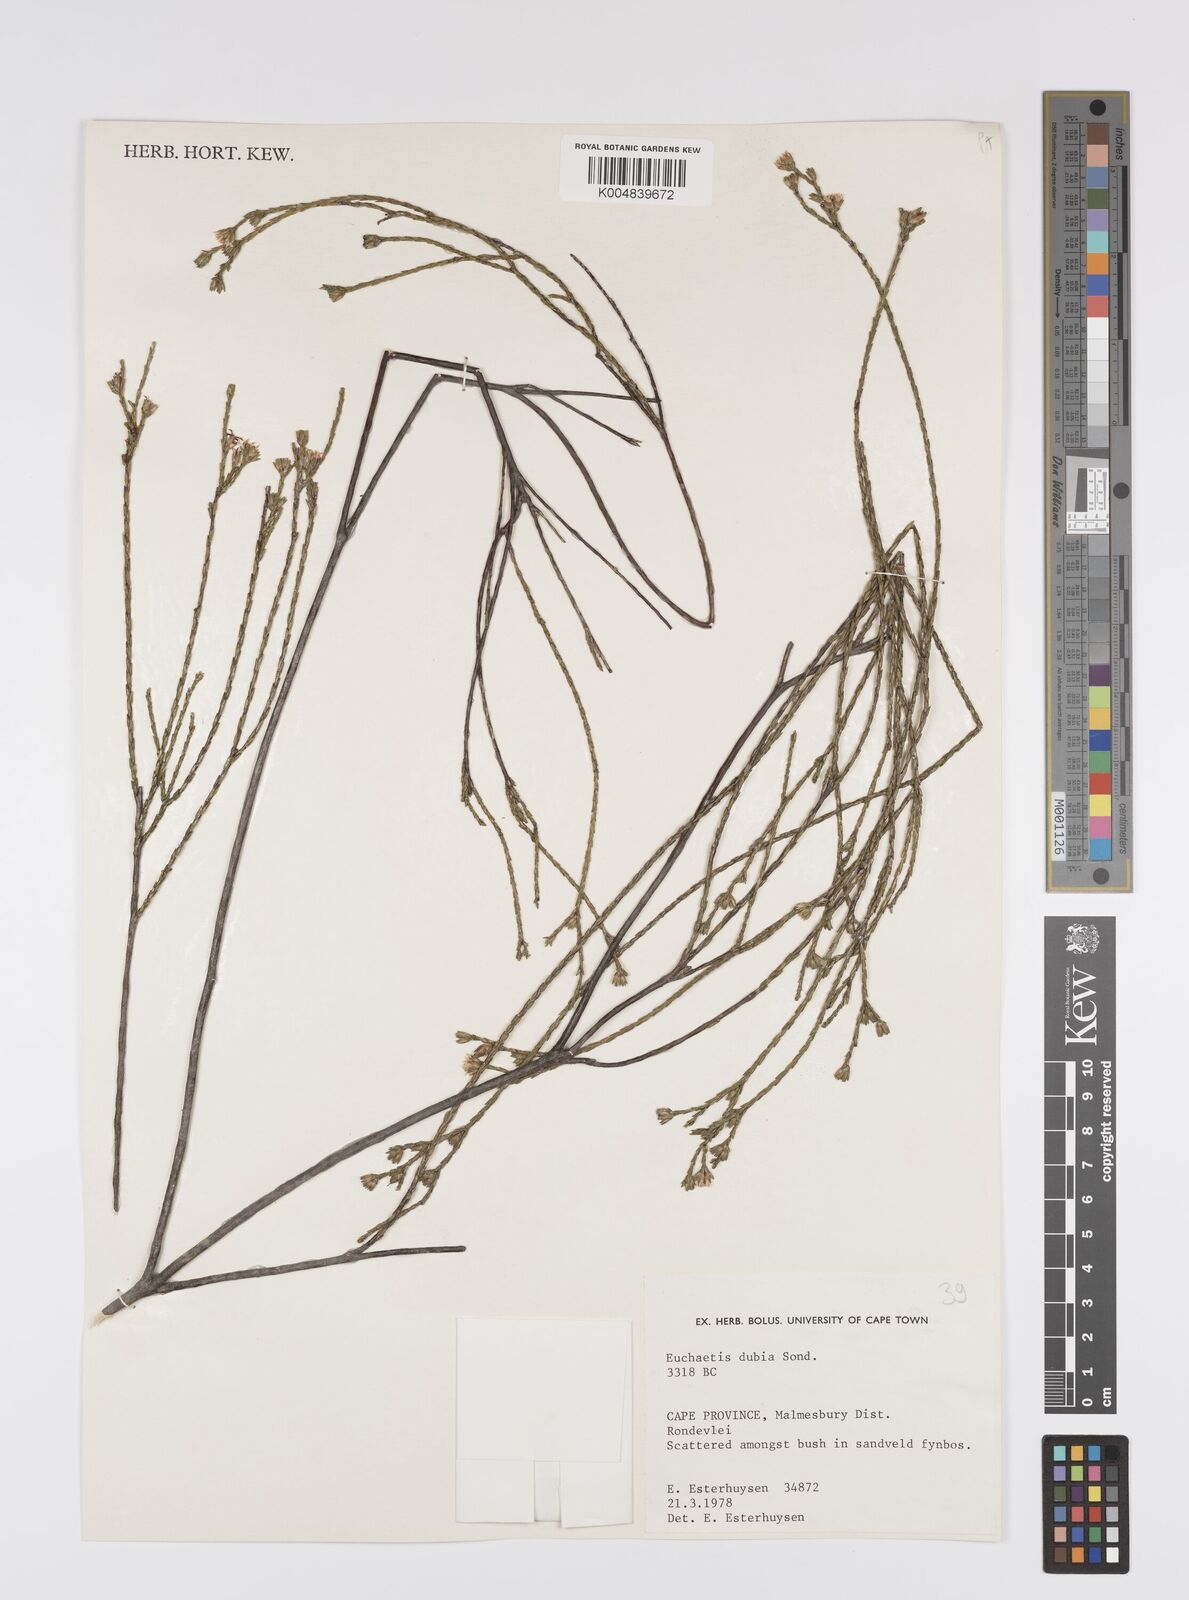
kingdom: Plantae
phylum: Tracheophyta
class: Magnoliopsida
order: Sapindales
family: Rutaceae
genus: Macrostylis
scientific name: Macrostylis cassiopoides
